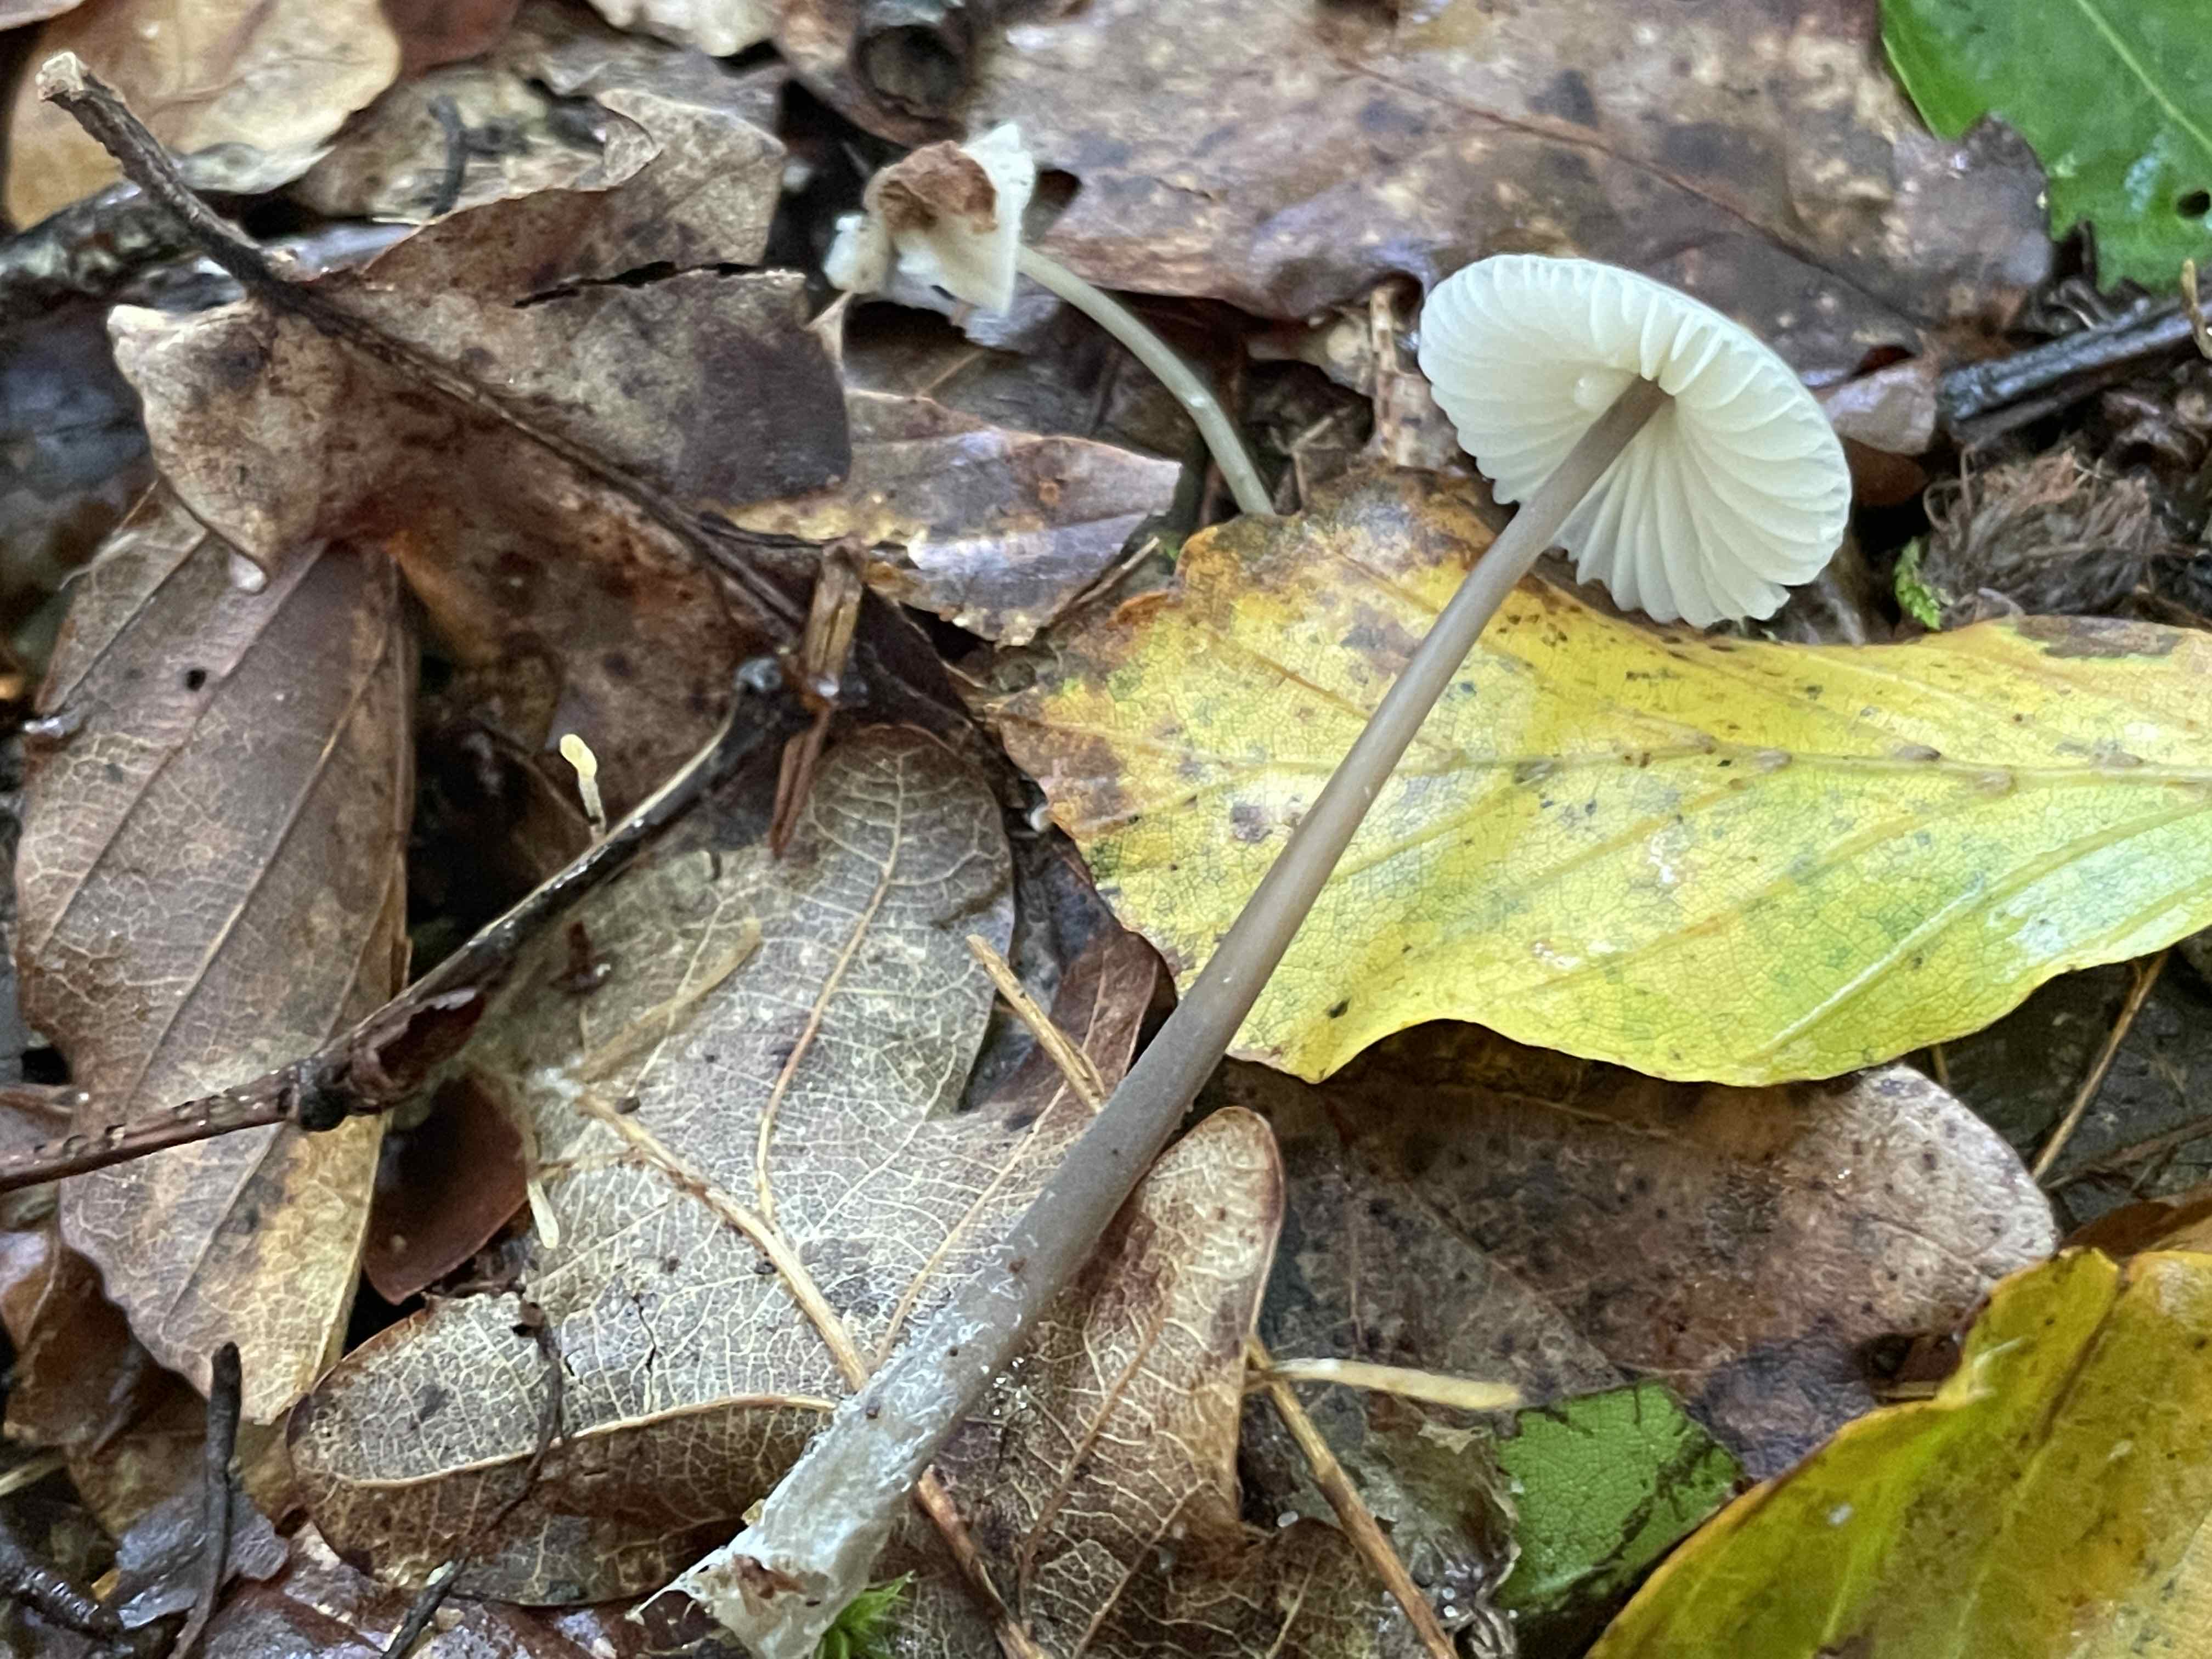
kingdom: Fungi
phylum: Basidiomycota
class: Agaricomycetes
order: Agaricales
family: Mycenaceae
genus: Mycena
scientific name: Mycena galopus
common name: hvidmælket huesvamp
